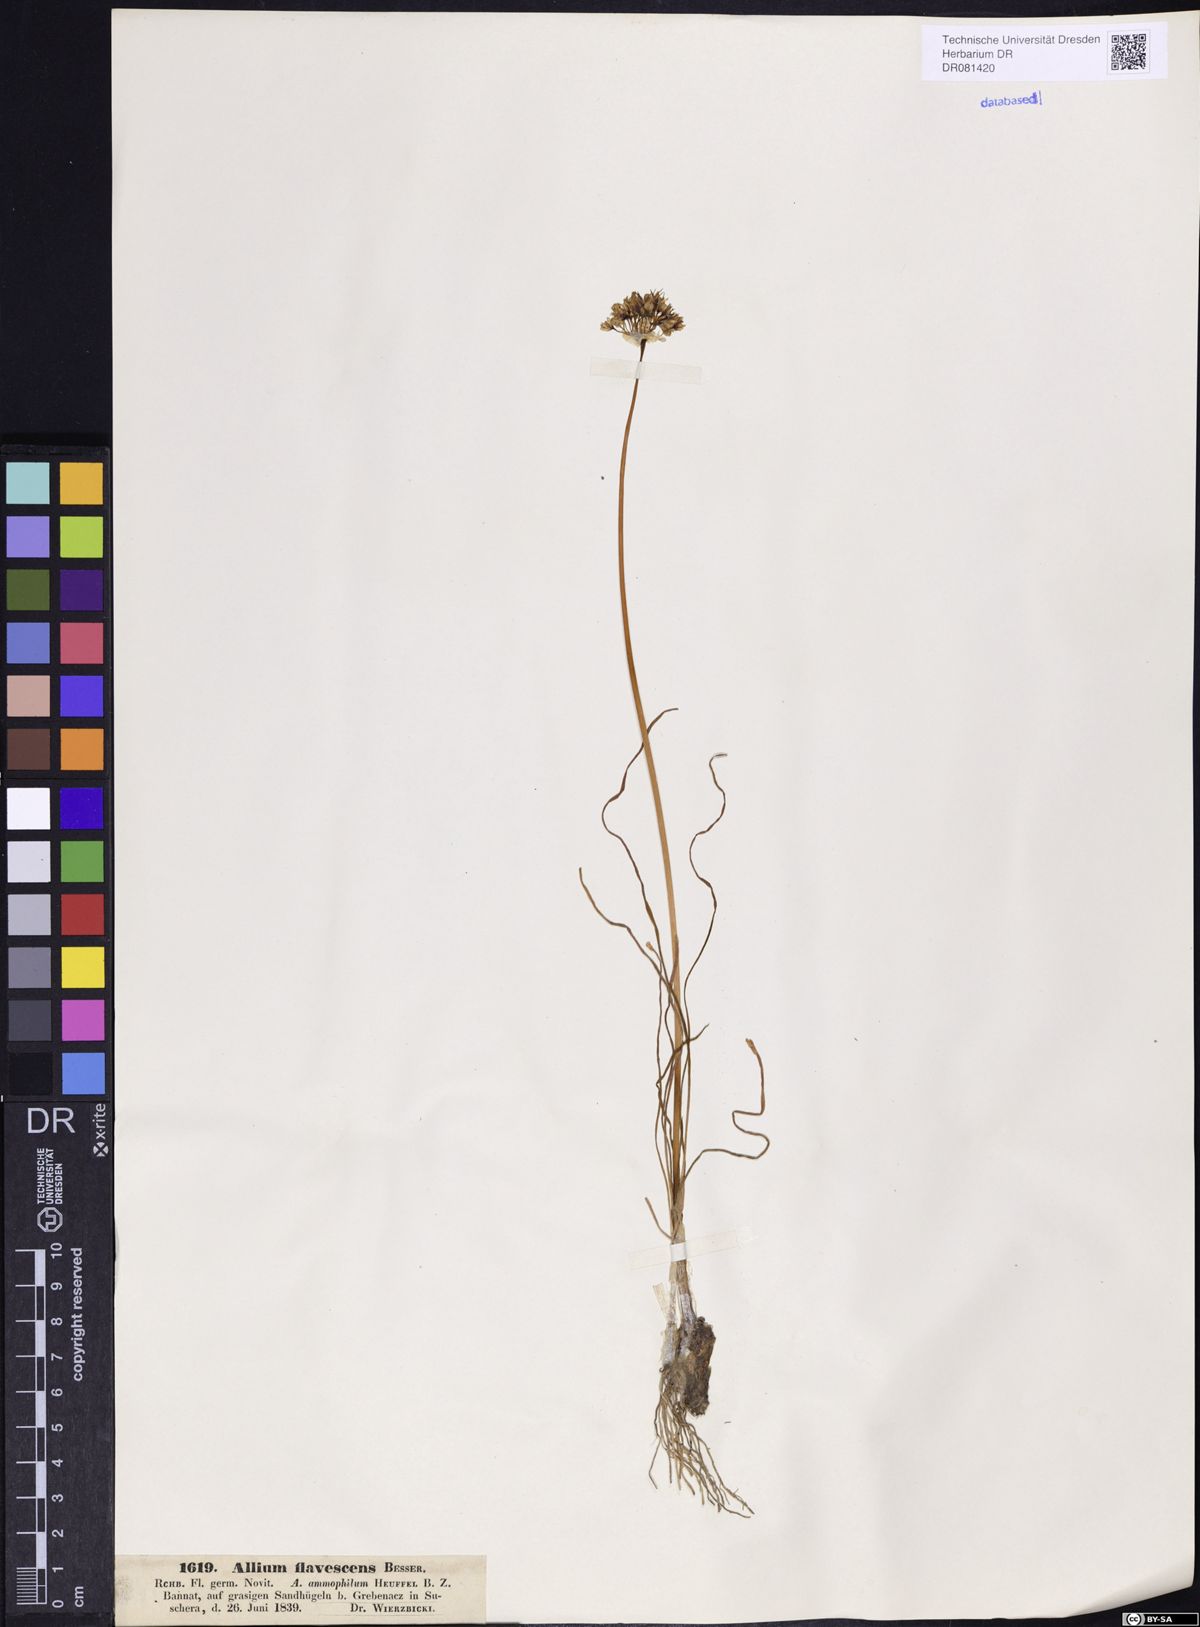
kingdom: Plantae
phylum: Tracheophyta
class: Liliopsida
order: Asparagales
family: Amaryllidaceae
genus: Allium
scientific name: Allium flavescens
